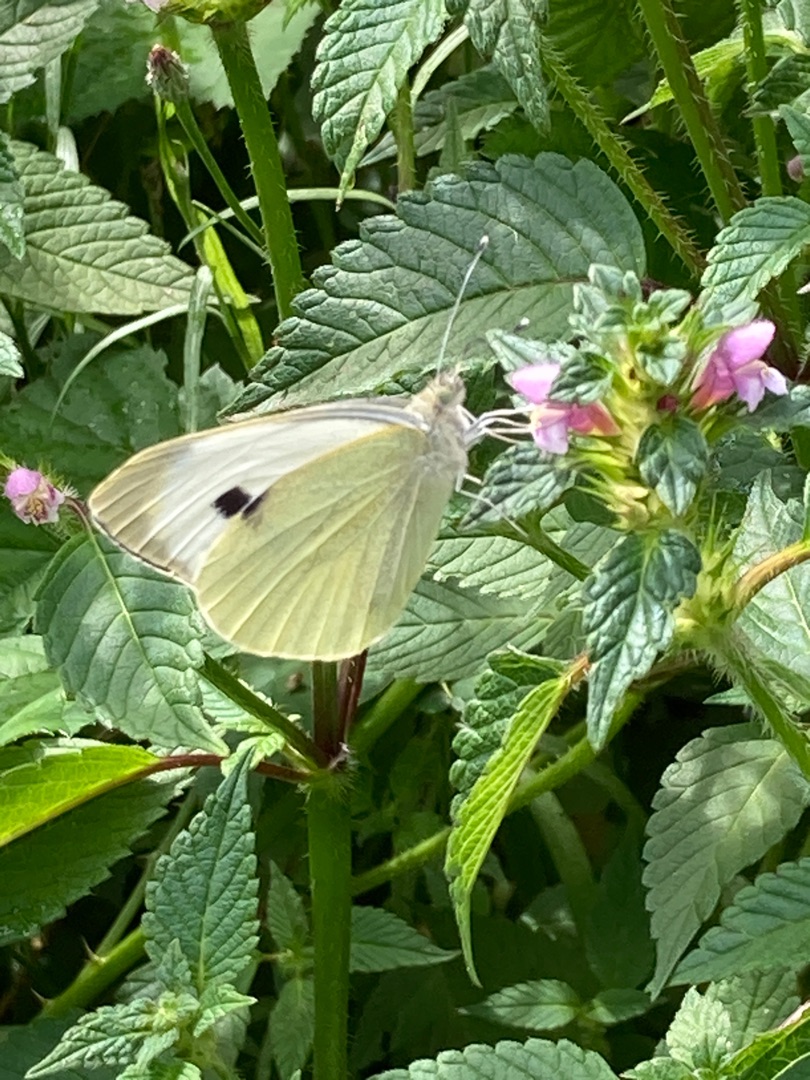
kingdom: Animalia
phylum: Arthropoda
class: Insecta
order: Lepidoptera
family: Pieridae
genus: Pieris
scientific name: Pieris brassicae
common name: Stor kålsommerfugl
